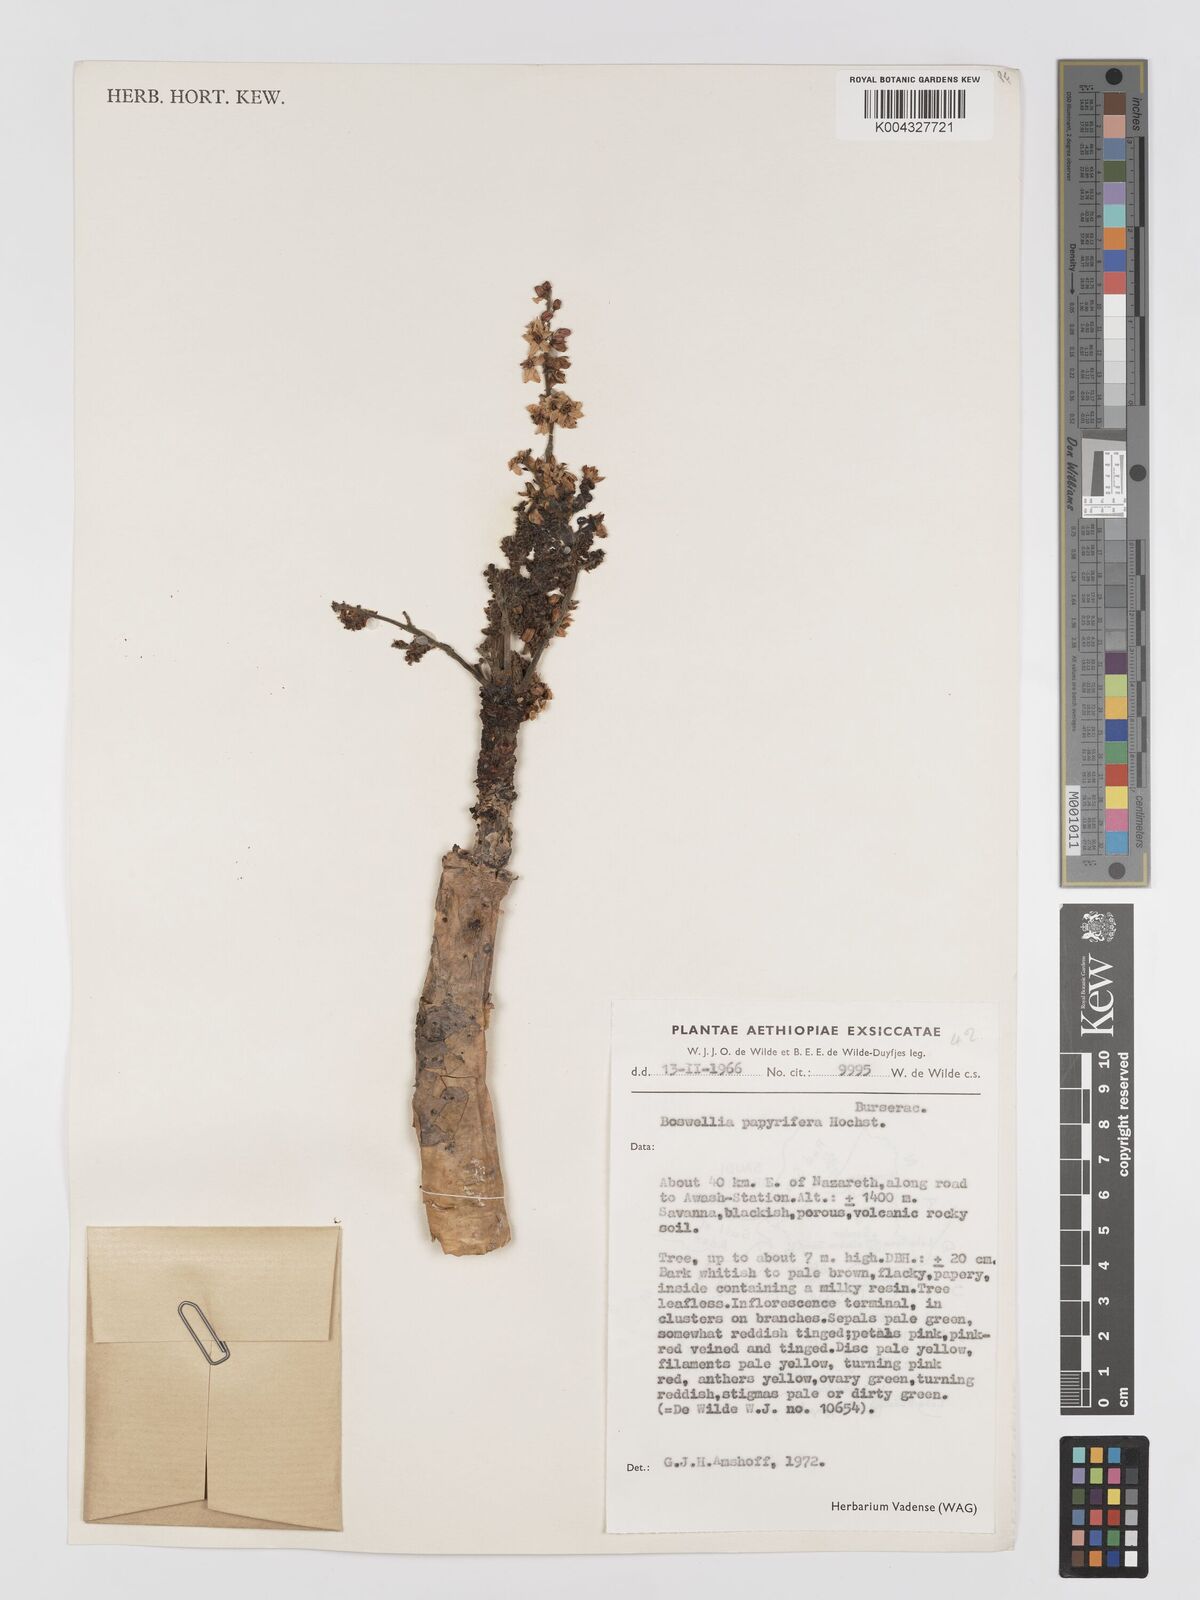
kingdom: Plantae
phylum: Tracheophyta
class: Magnoliopsida
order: Sapindales
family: Burseraceae
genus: Boswellia
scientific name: Boswellia papyrifera
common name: Sudanese frankincense
